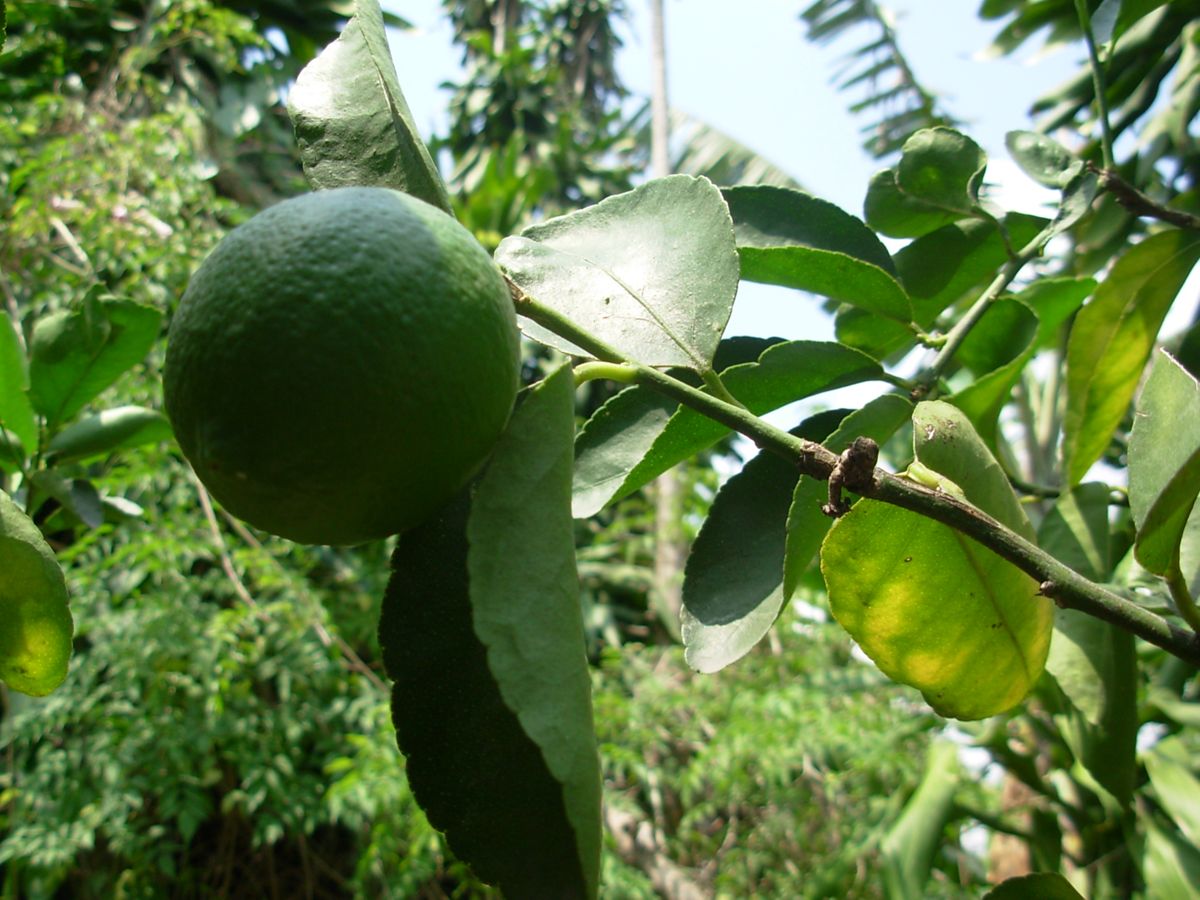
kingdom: Plantae
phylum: Tracheophyta
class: Magnoliopsida
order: Sapindales
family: Rutaceae
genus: Citrus
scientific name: Citrus latifolia
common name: Bearss lime
